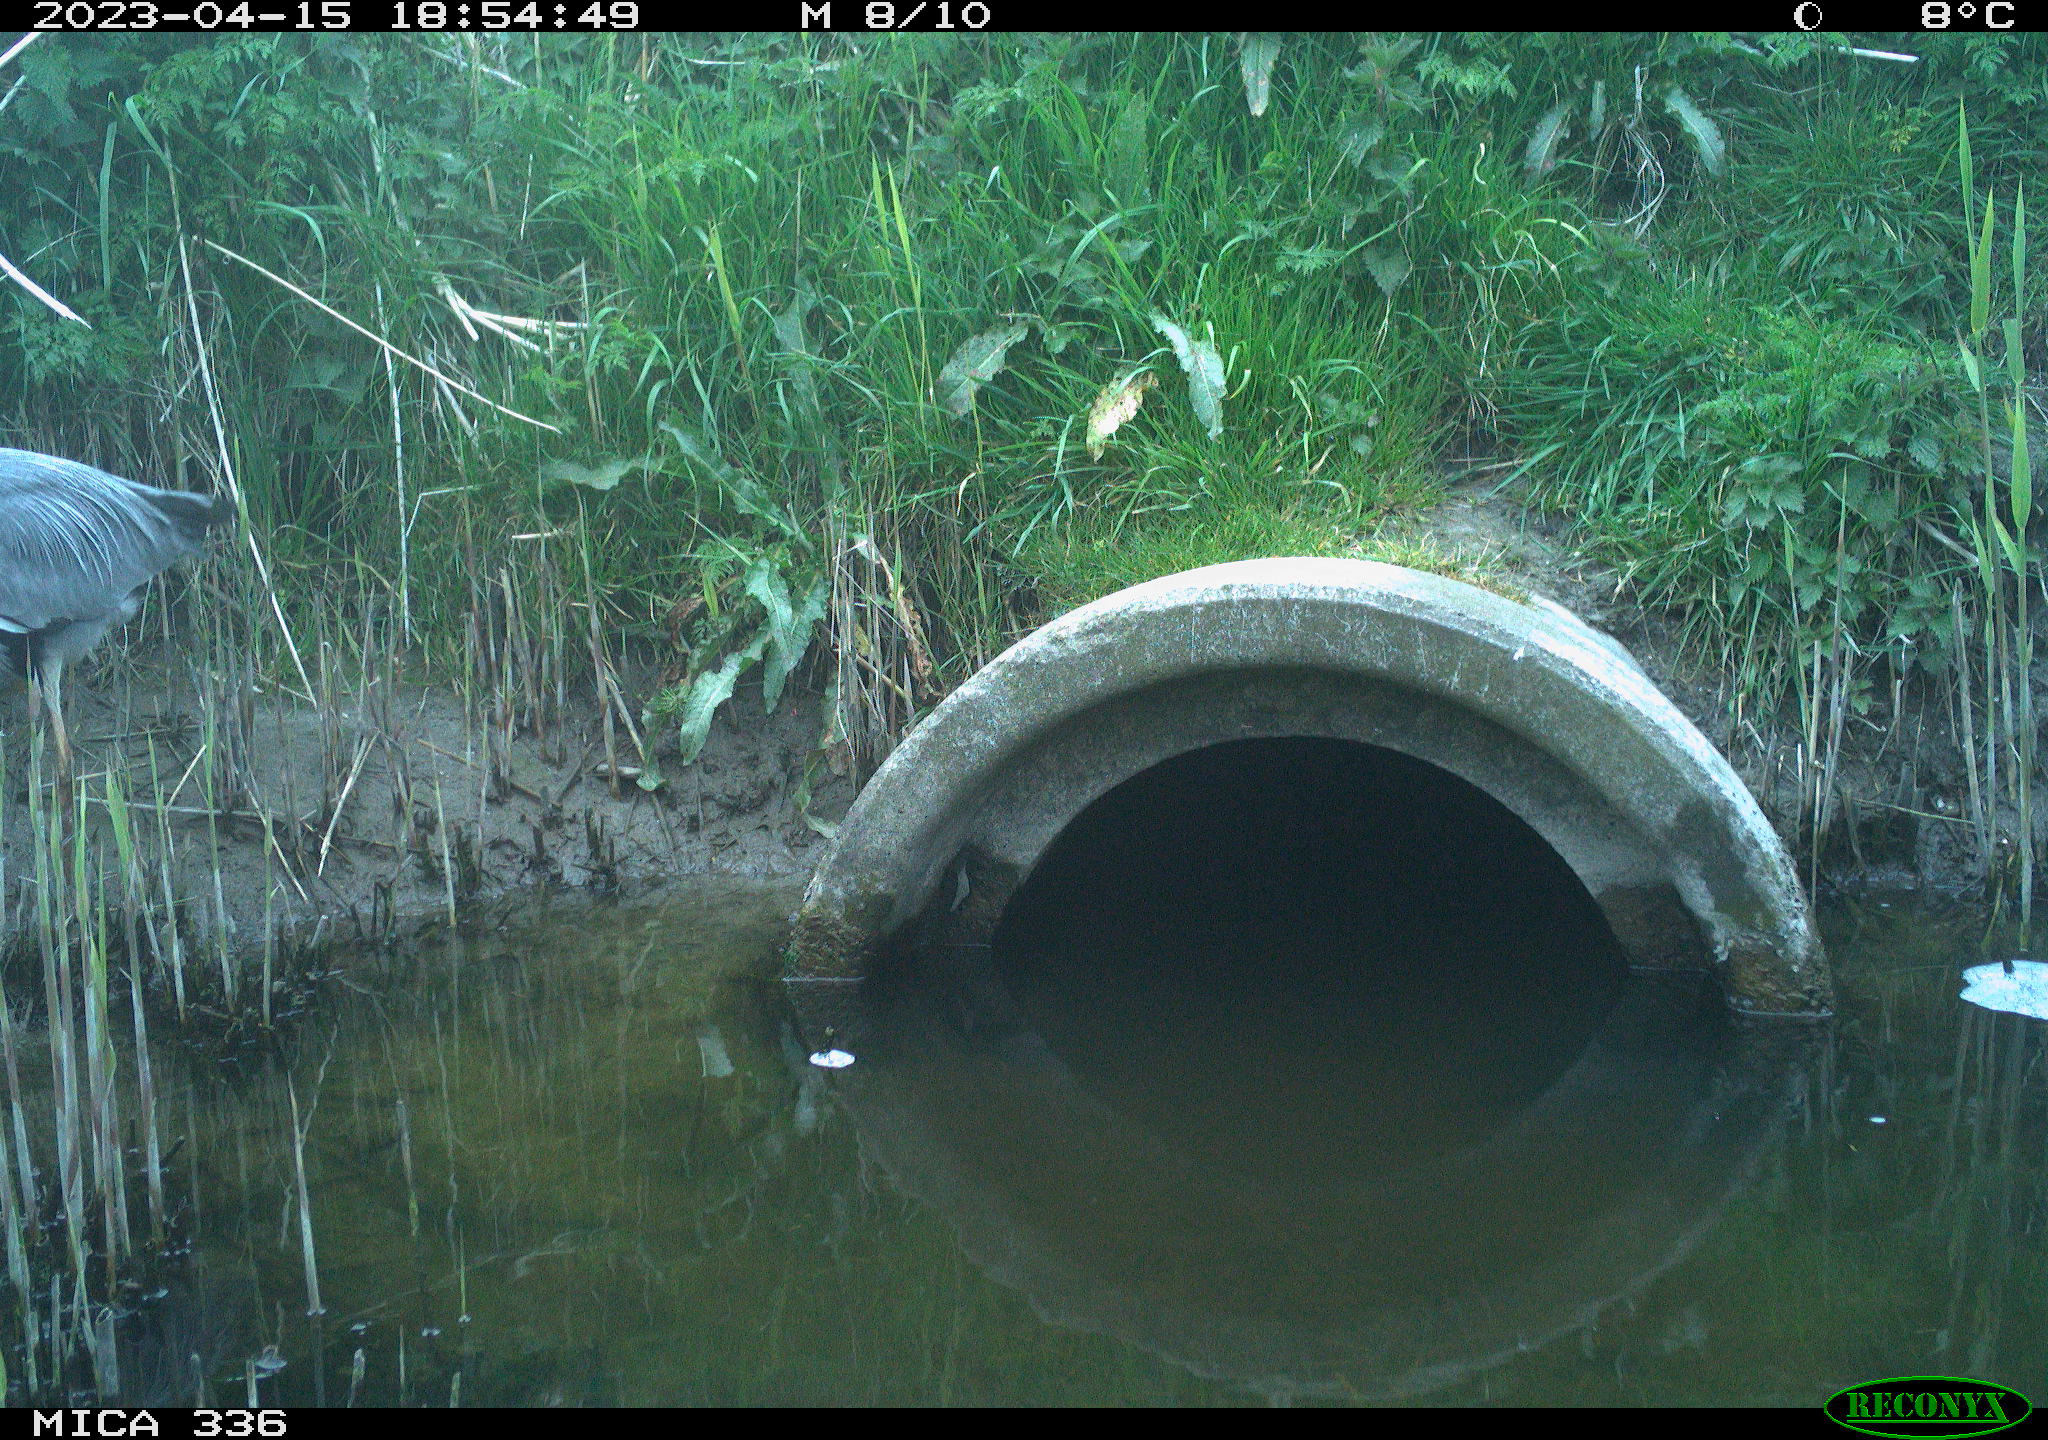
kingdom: Animalia
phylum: Chordata
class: Aves
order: Pelecaniformes
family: Ardeidae
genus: Ardea
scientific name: Ardea
